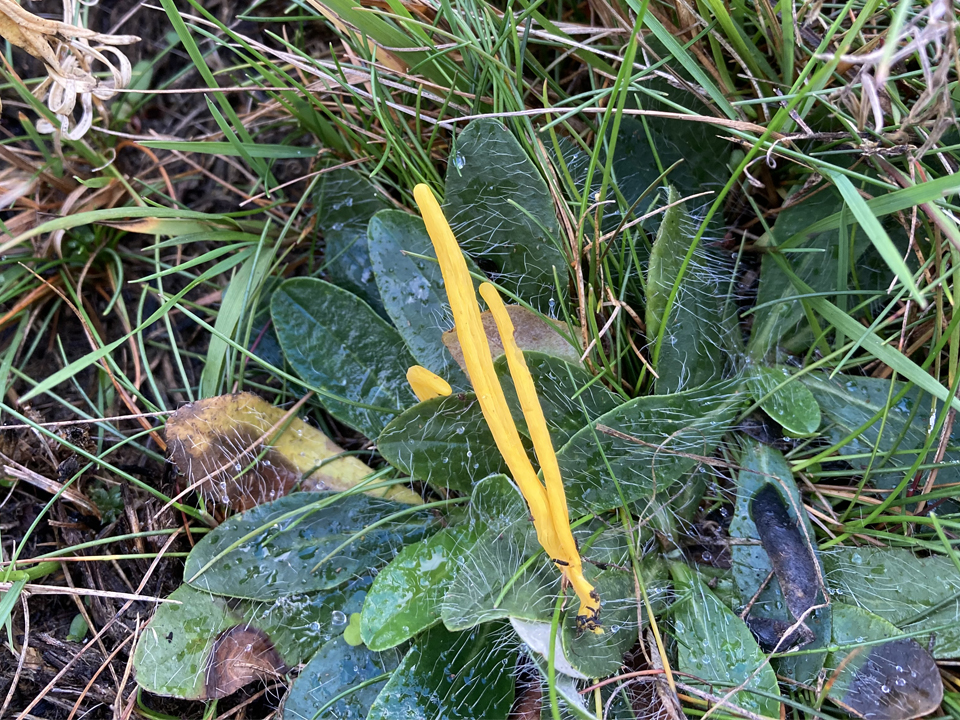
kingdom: Fungi
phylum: Basidiomycota
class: Agaricomycetes
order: Agaricales
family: Clavariaceae
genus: Clavulinopsis
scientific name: Clavulinopsis helvola
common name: orangegul køllesvamp
